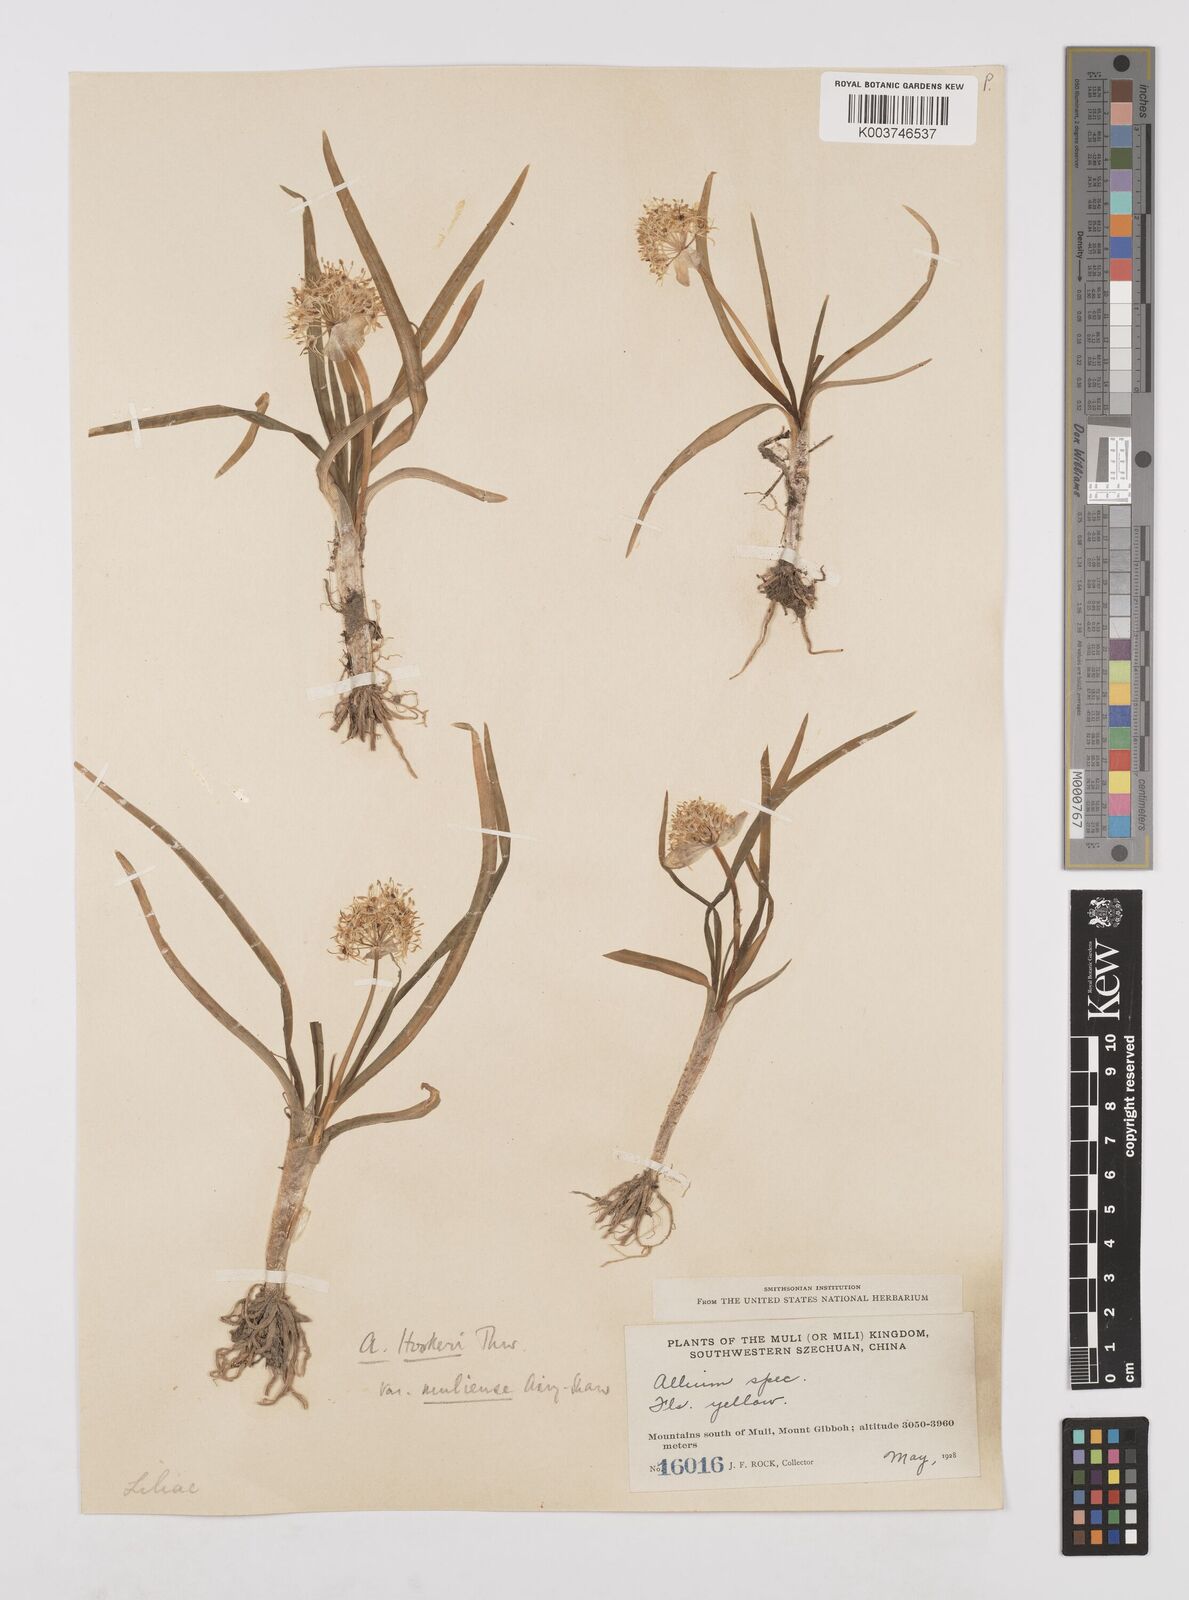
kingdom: Plantae
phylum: Tracheophyta
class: Liliopsida
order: Asparagales
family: Amaryllidaceae
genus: Allium
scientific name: Allium hookeri
